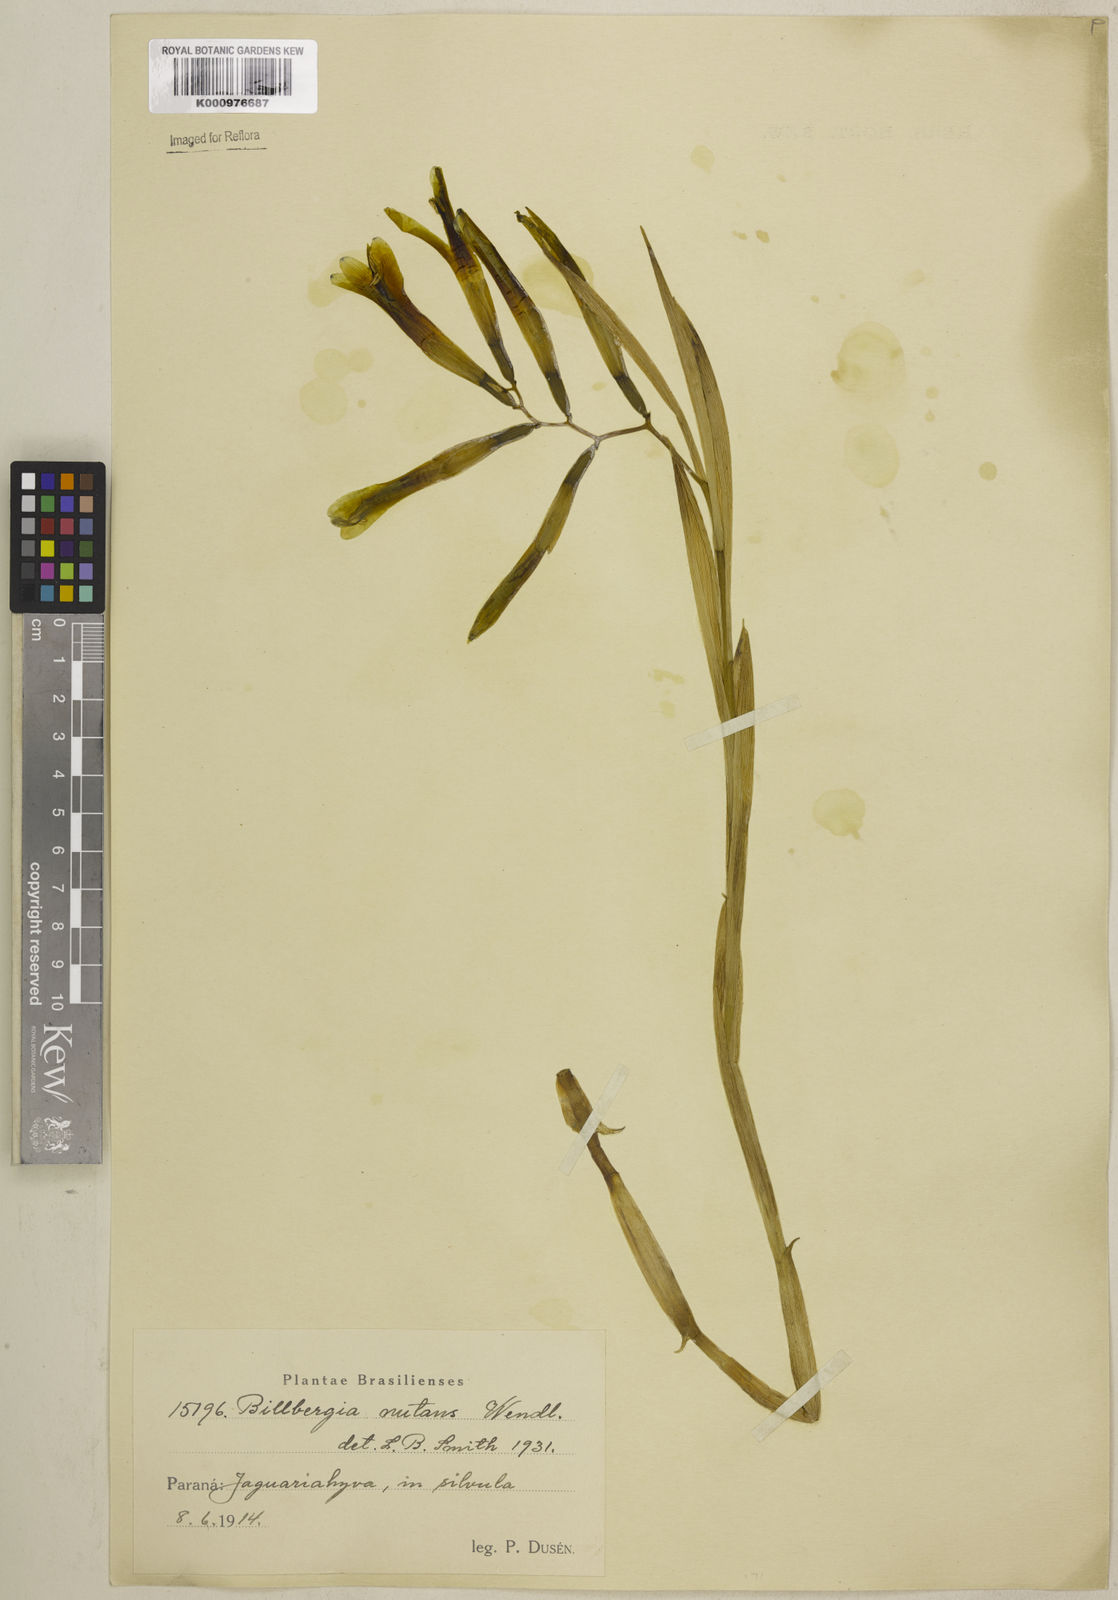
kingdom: Plantae
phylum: Tracheophyta
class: Liliopsida
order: Poales
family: Bromeliaceae
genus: Billbergia
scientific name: Billbergia nutans
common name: Friendship-plant
